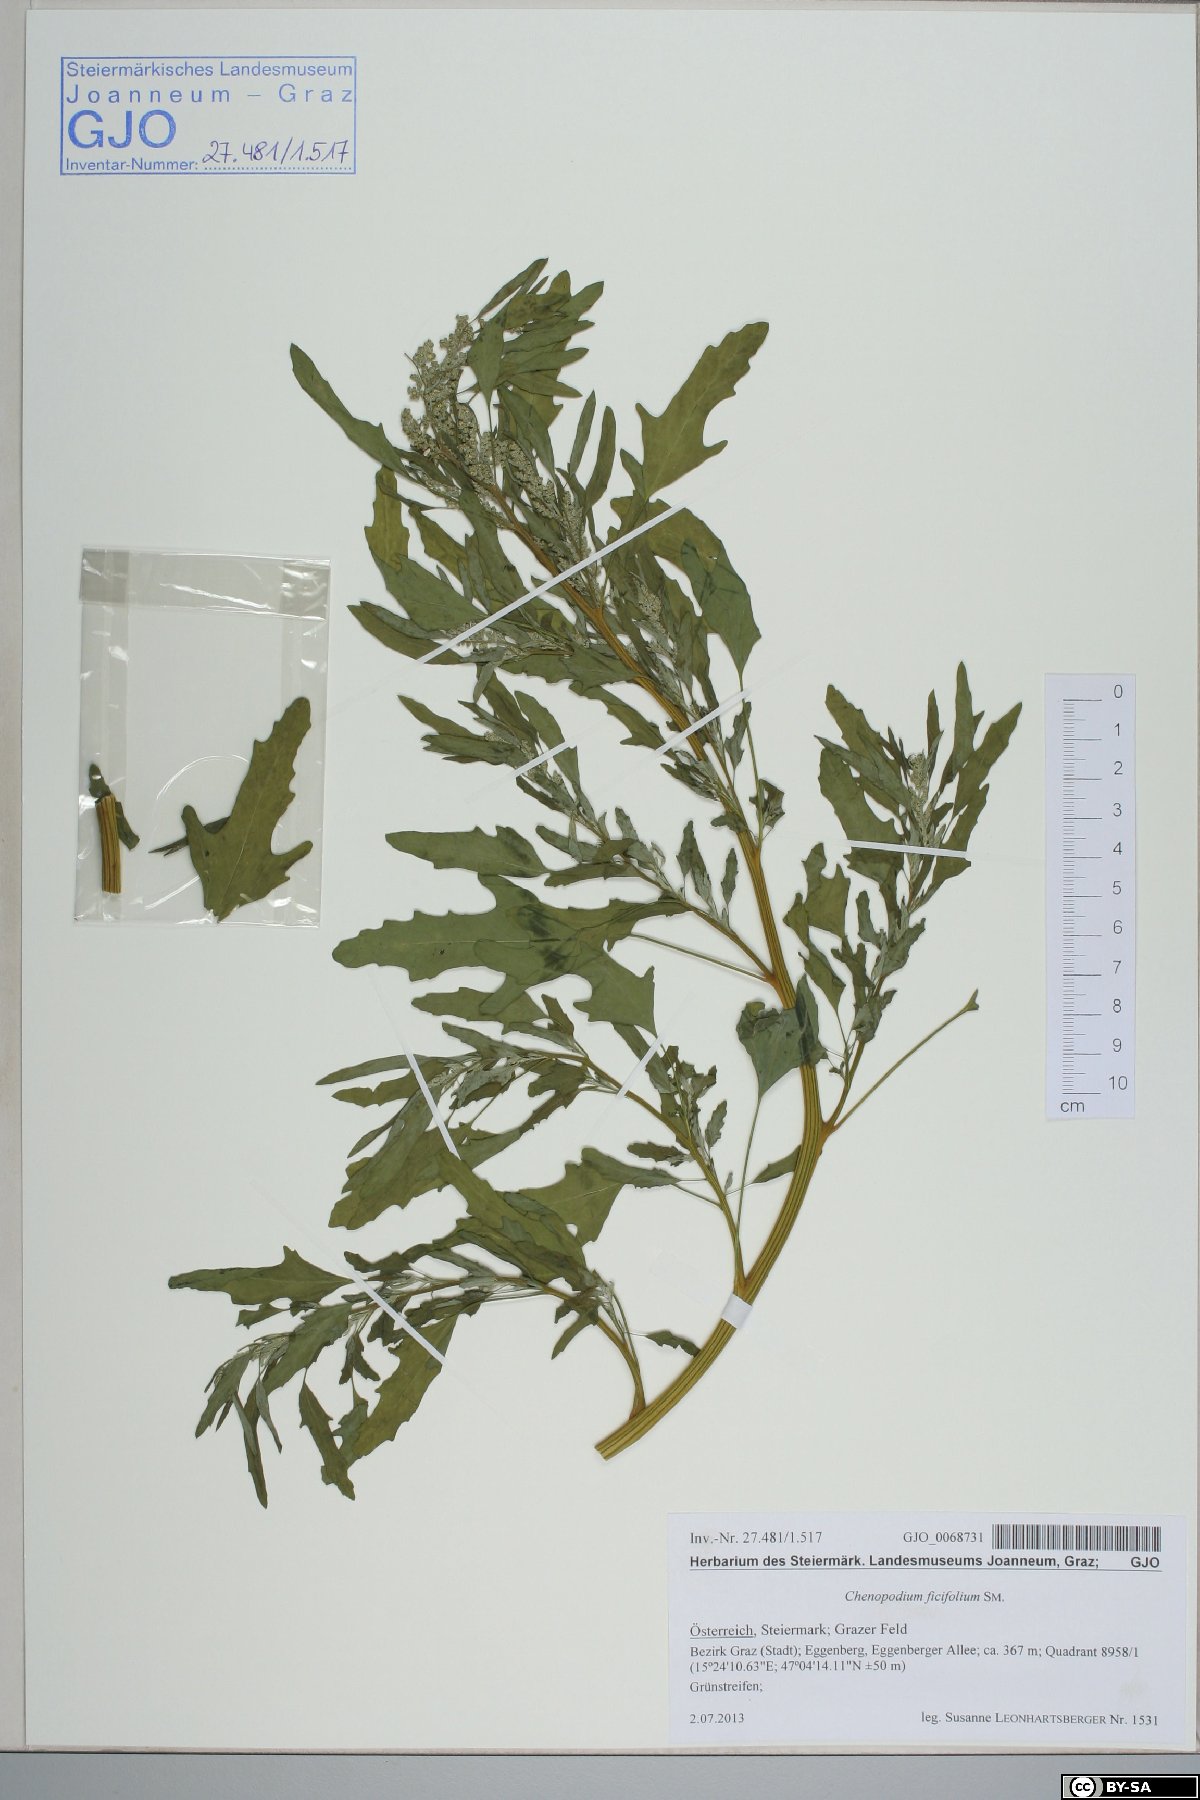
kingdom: Plantae
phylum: Tracheophyta
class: Magnoliopsida
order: Caryophyllales
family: Amaranthaceae
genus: Chenopodium
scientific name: Chenopodium ficifolium
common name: Fig-leaved goosefoot
